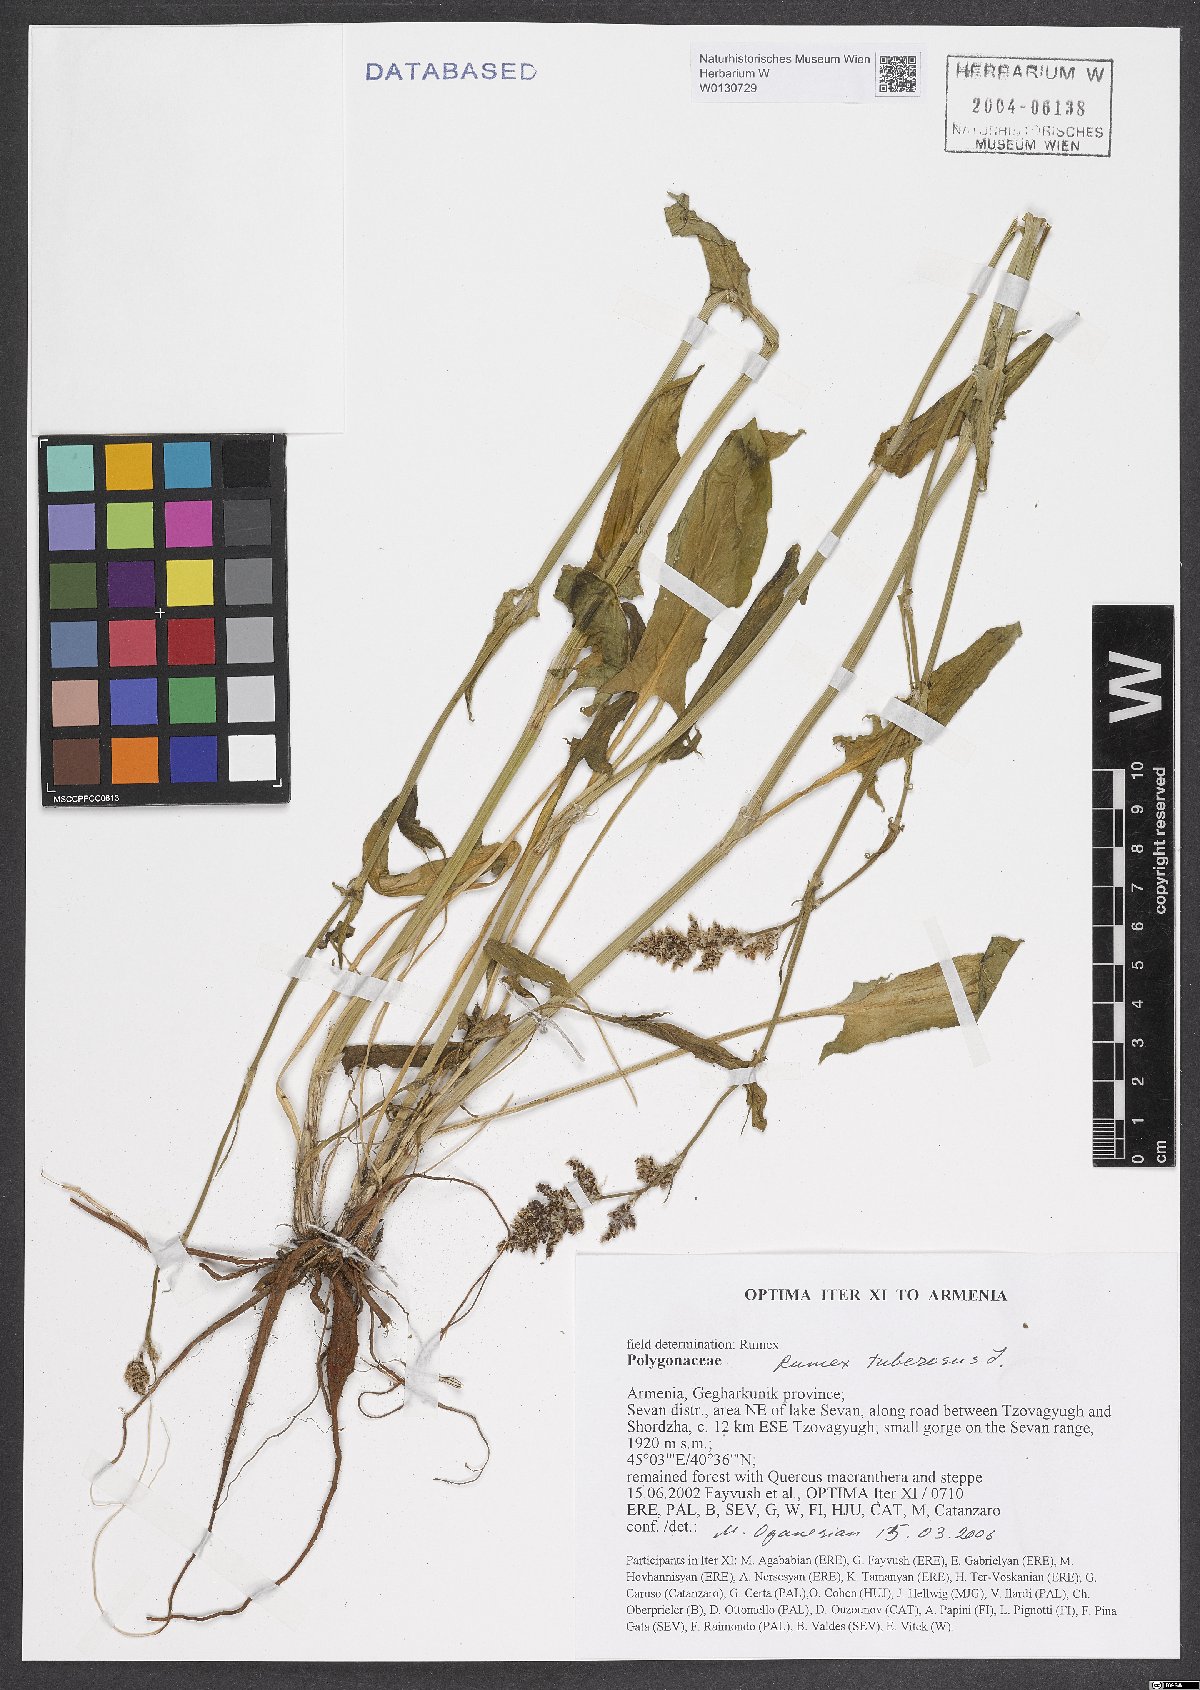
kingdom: Plantae
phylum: Tracheophyta
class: Magnoliopsida
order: Caryophyllales
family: Polygonaceae
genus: Rumex
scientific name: Rumex tuberosus
